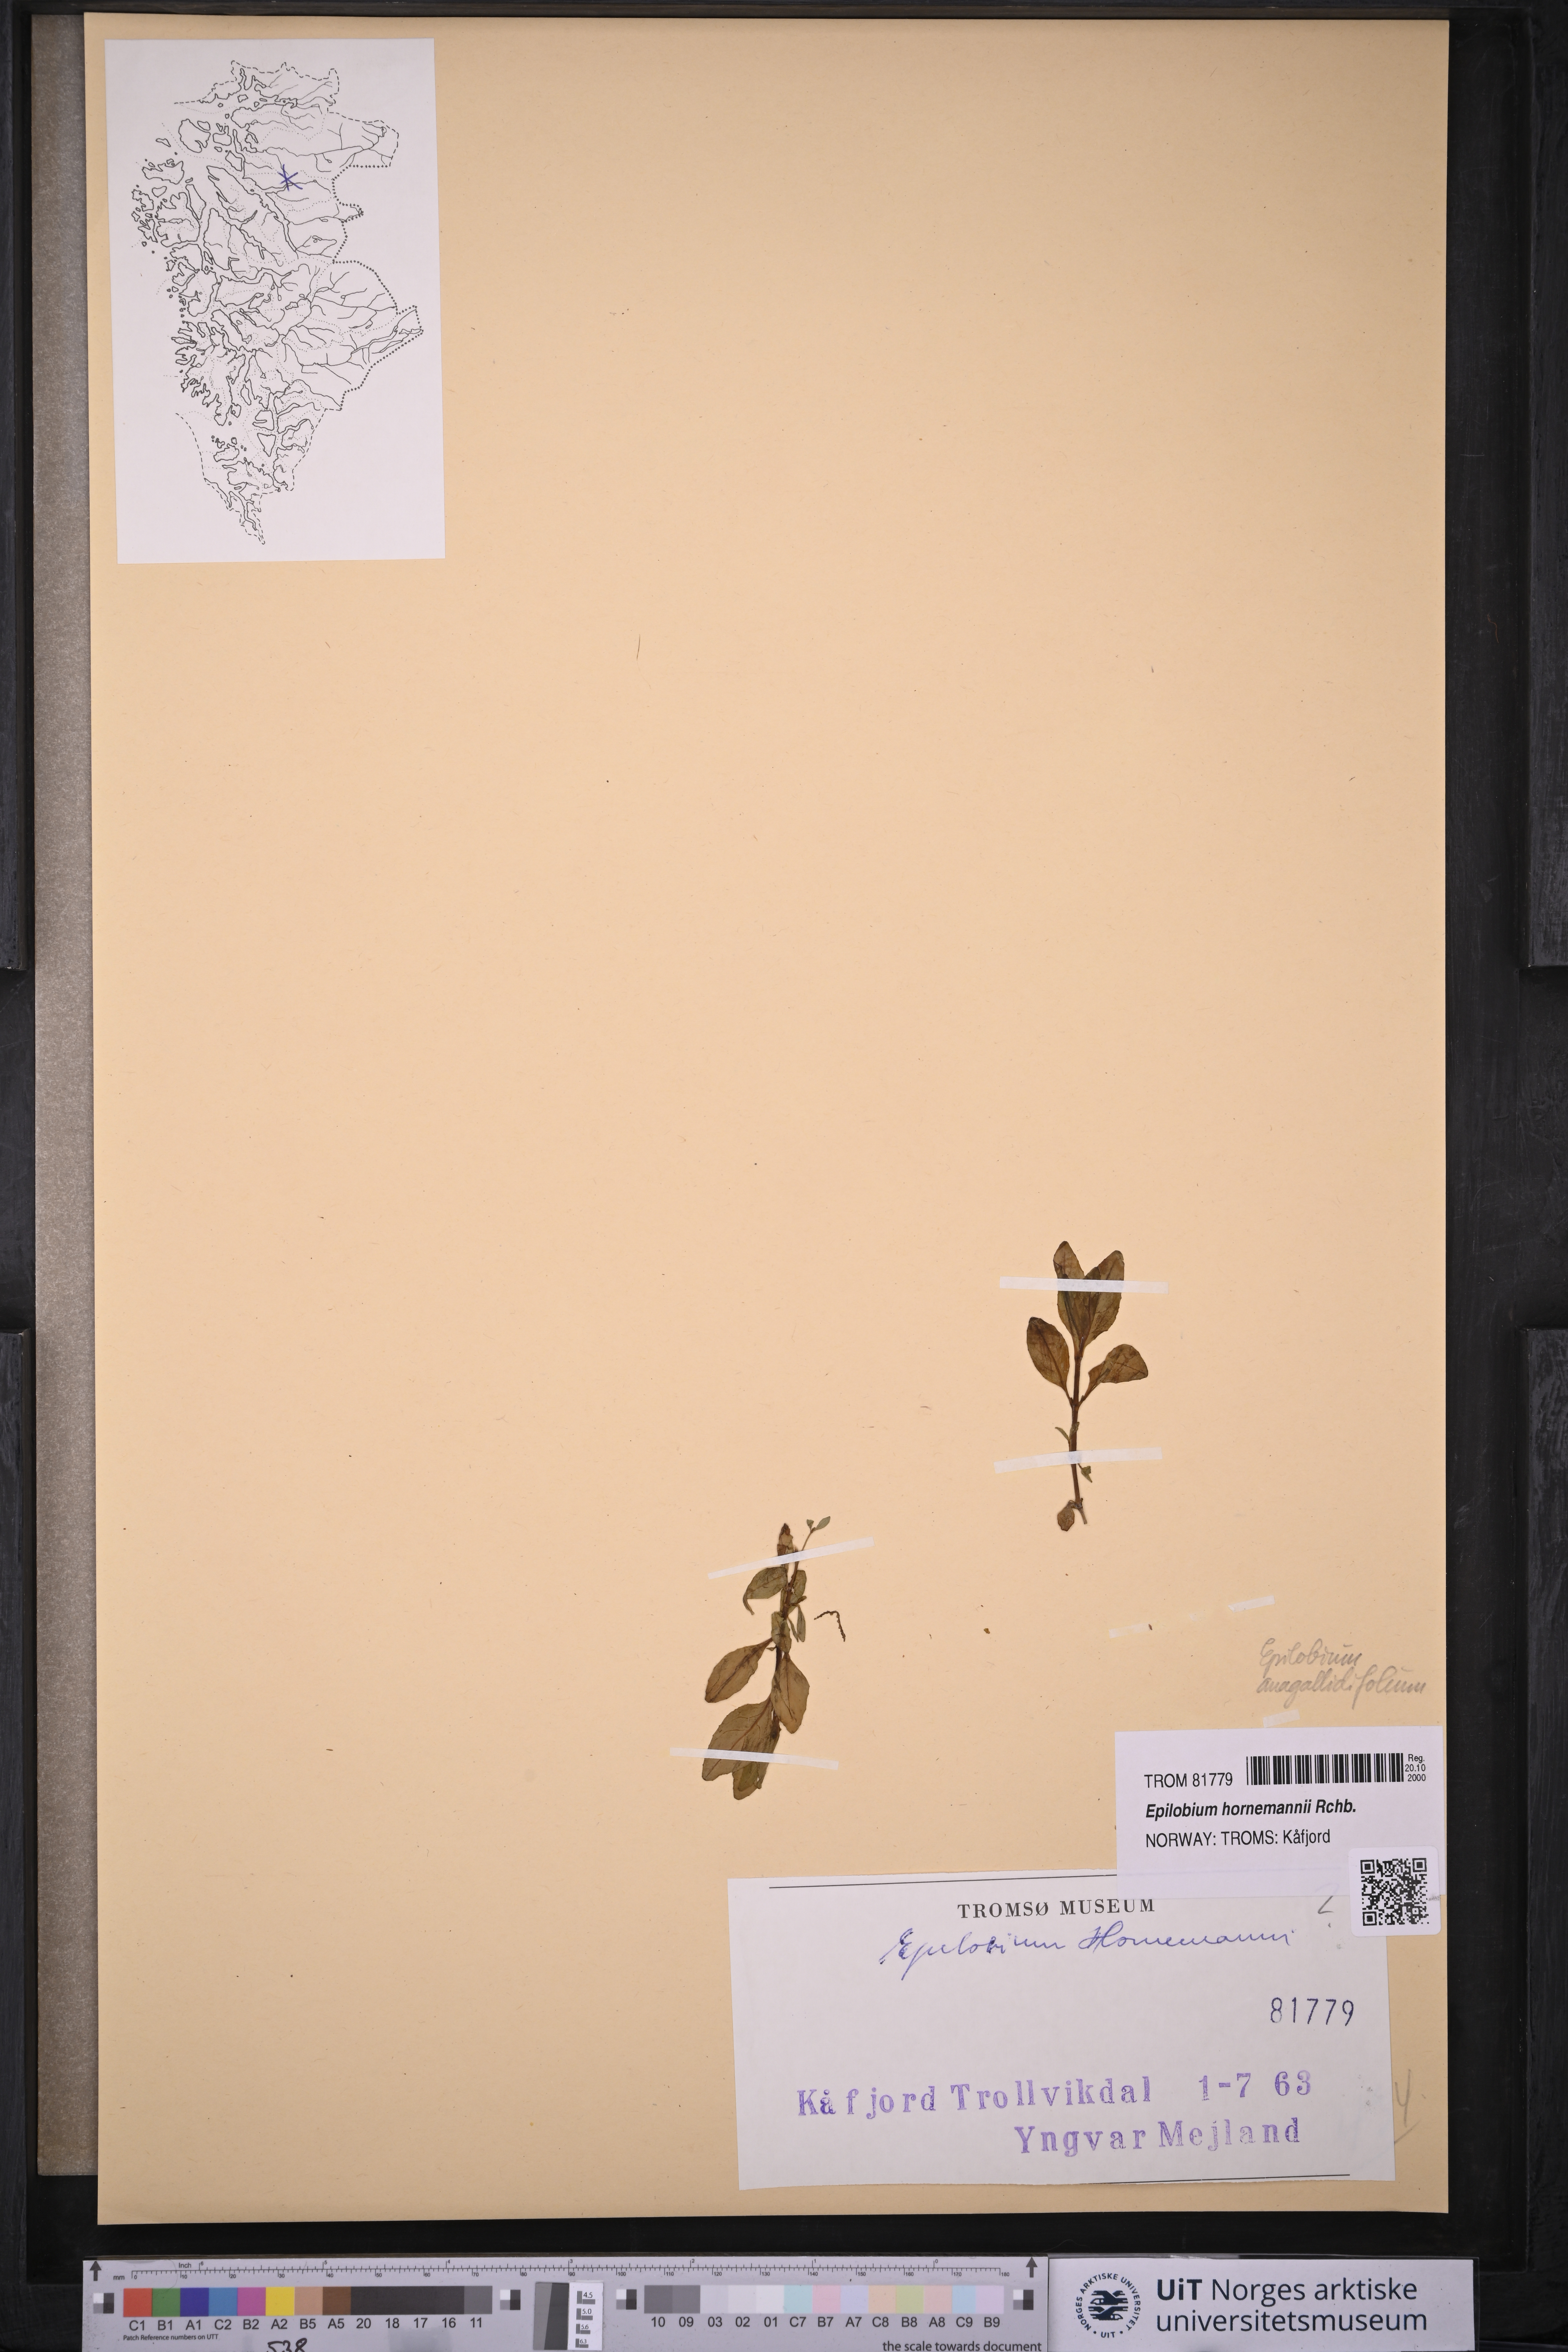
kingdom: Plantae
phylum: Tracheophyta
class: Magnoliopsida
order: Myrtales
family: Onagraceae
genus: Epilobium
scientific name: Epilobium hornemannii
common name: Hornemann's willowherb
